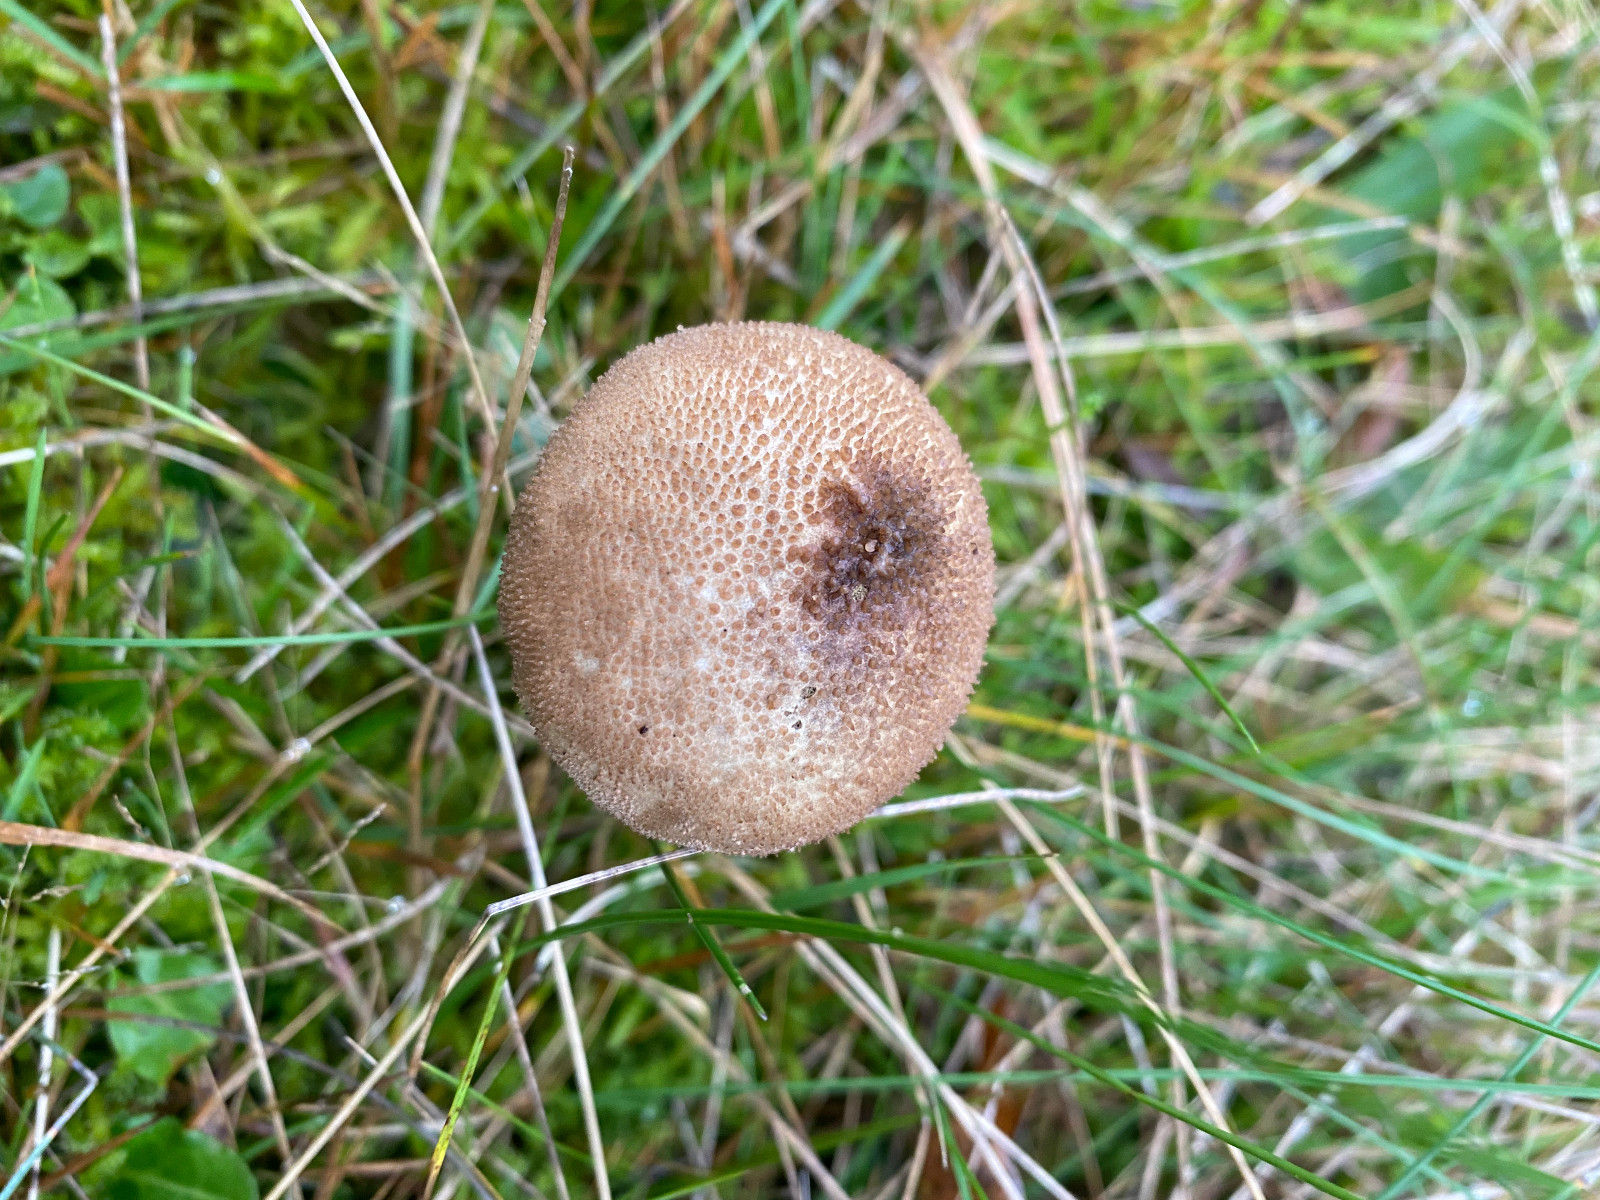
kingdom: Fungi
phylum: Basidiomycota
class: Agaricomycetes
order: Agaricales
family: Lycoperdaceae
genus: Lycoperdon
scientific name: Lycoperdon perlatum
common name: krystal-støvbold
